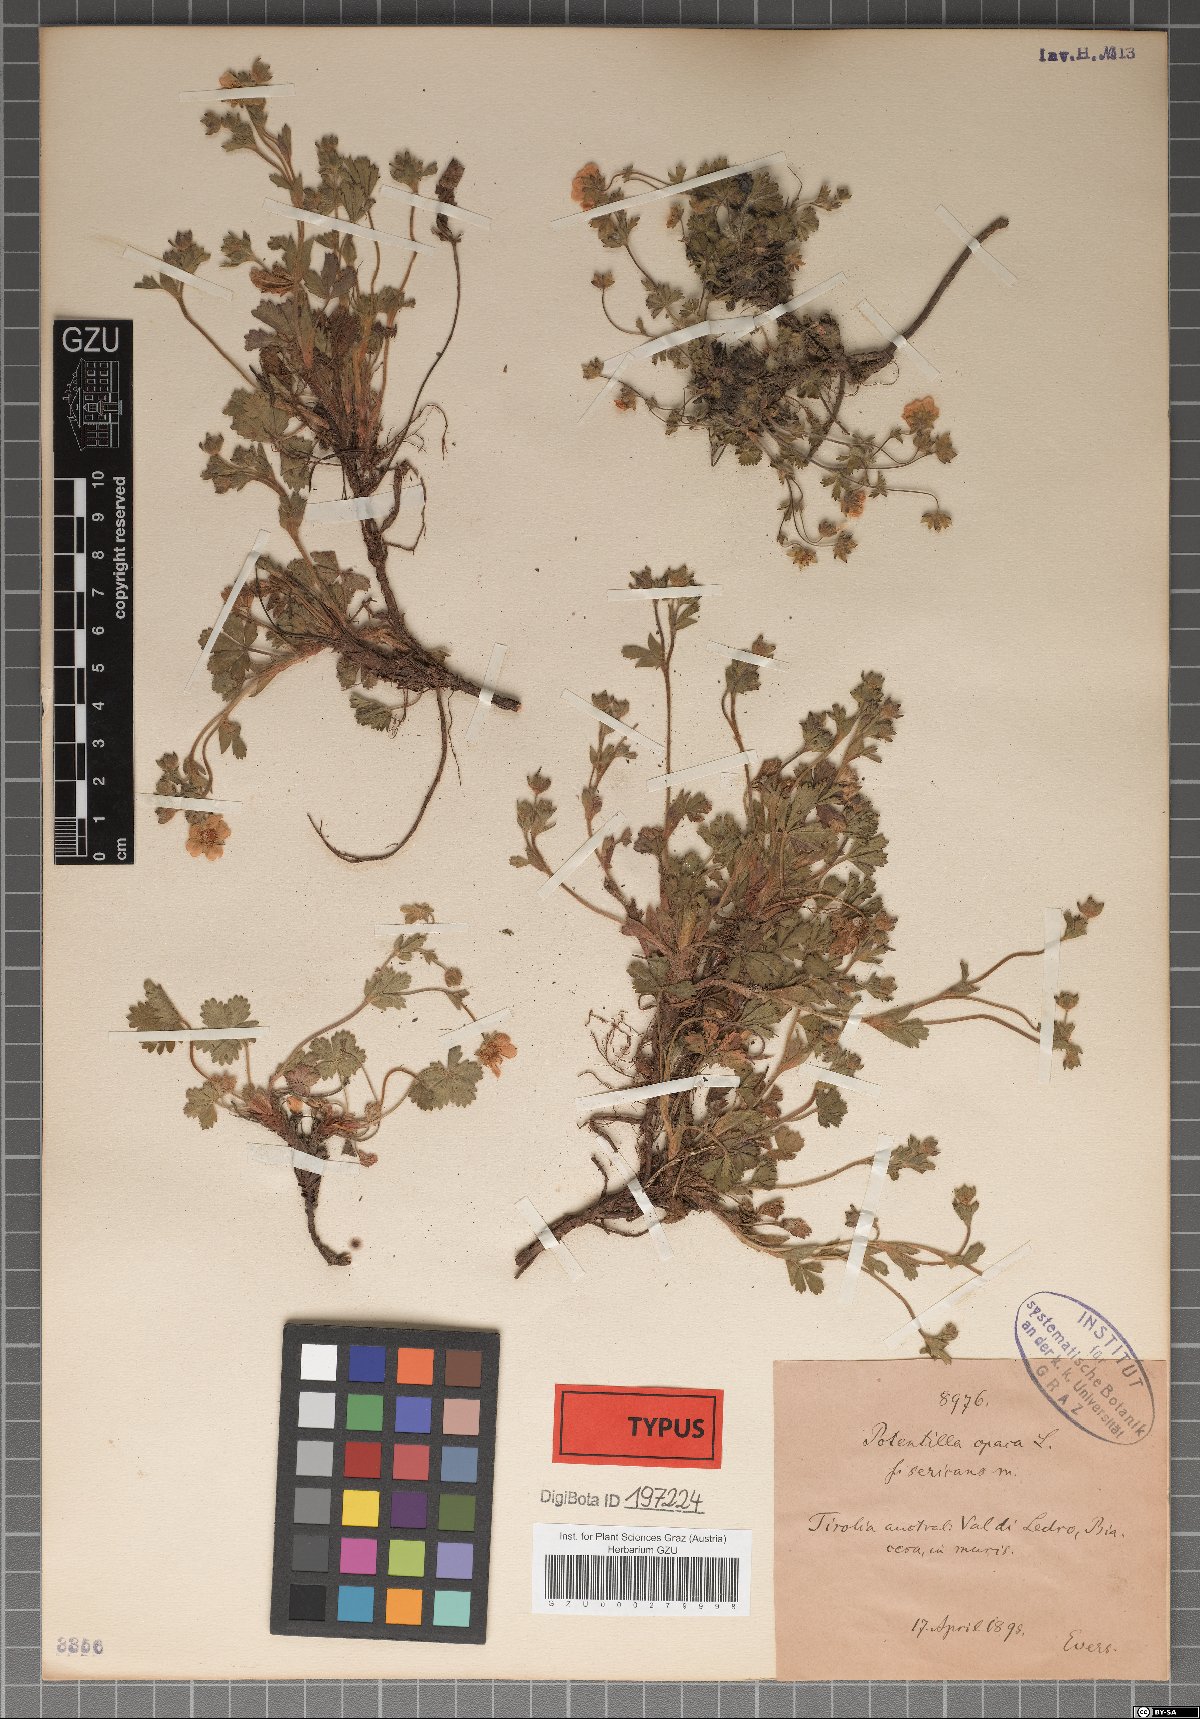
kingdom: Plantae
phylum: Tracheophyta
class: Magnoliopsida
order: Rosales
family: Rosaceae
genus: Potentilla
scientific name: Potentilla
